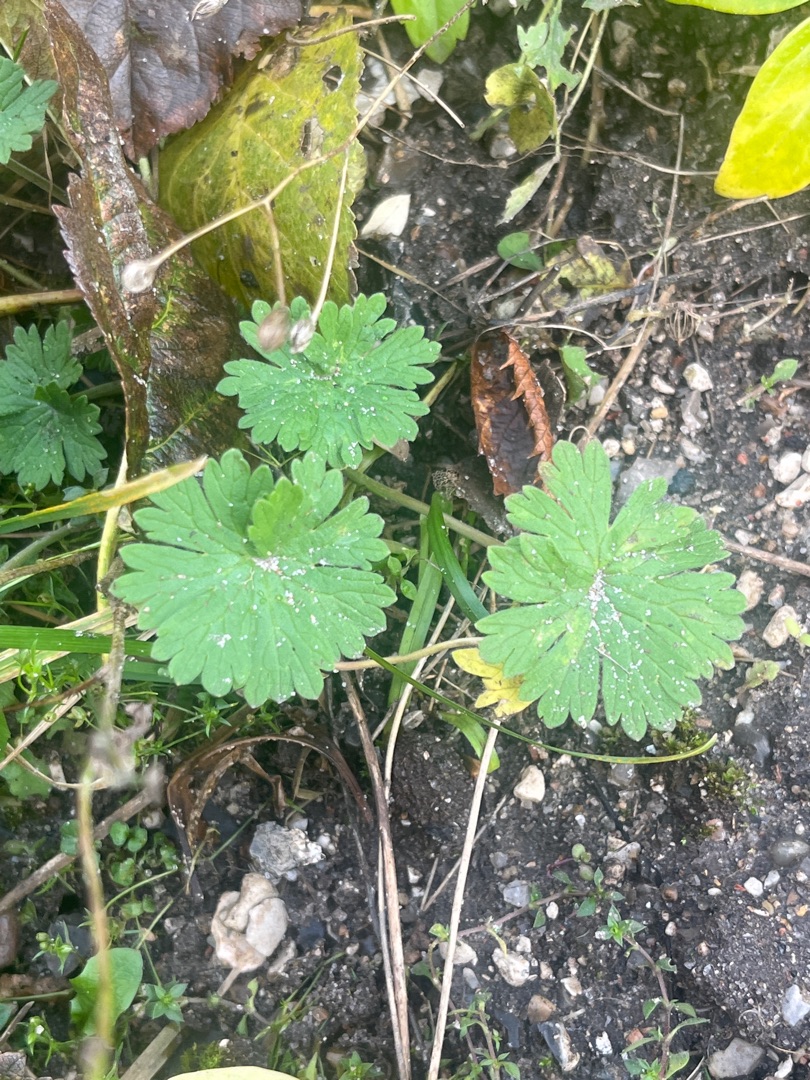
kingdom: Plantae
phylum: Tracheophyta
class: Magnoliopsida
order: Geraniales
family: Geraniaceae
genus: Geranium
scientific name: Geranium
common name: Storkenæbslægten
